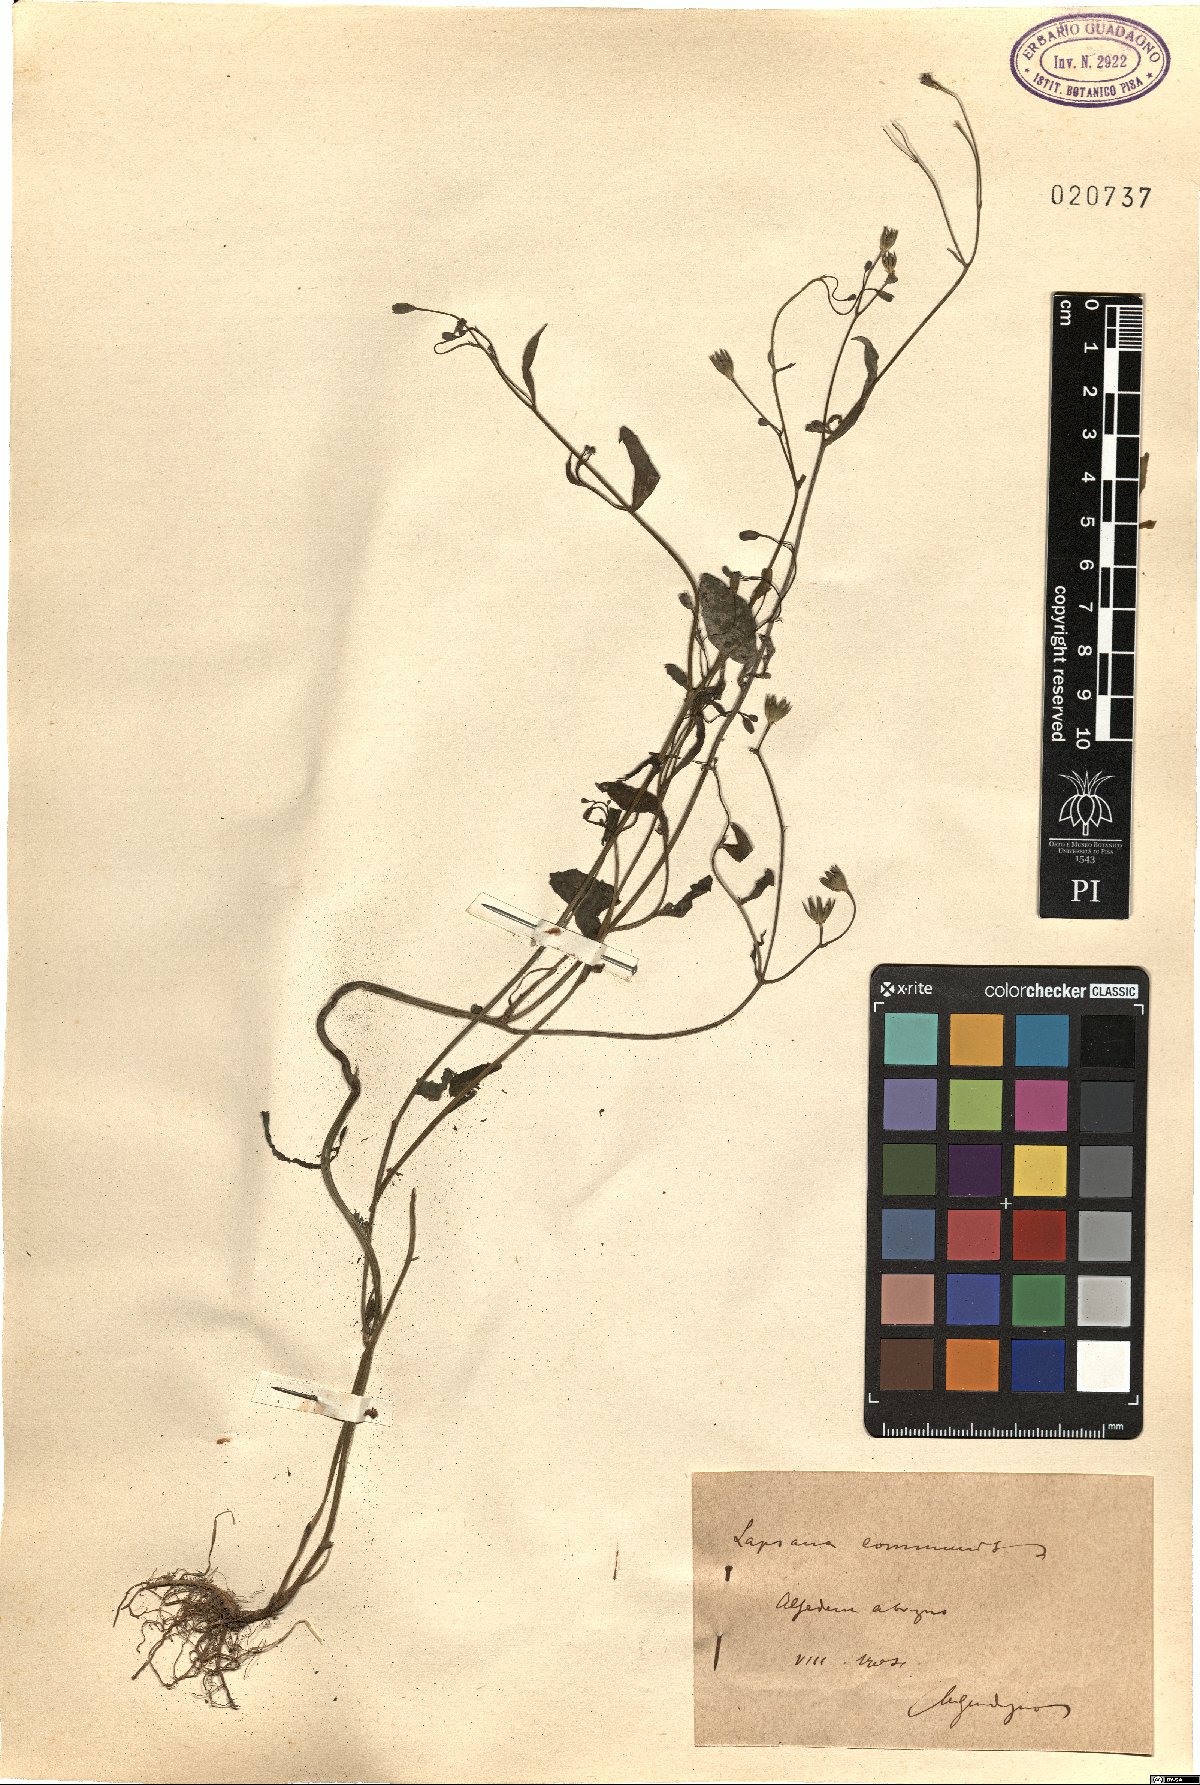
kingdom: Plantae
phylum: Tracheophyta
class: Magnoliopsida
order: Asterales
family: Asteraceae
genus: Lapsana
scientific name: Lapsana communis
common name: Nipplewort
